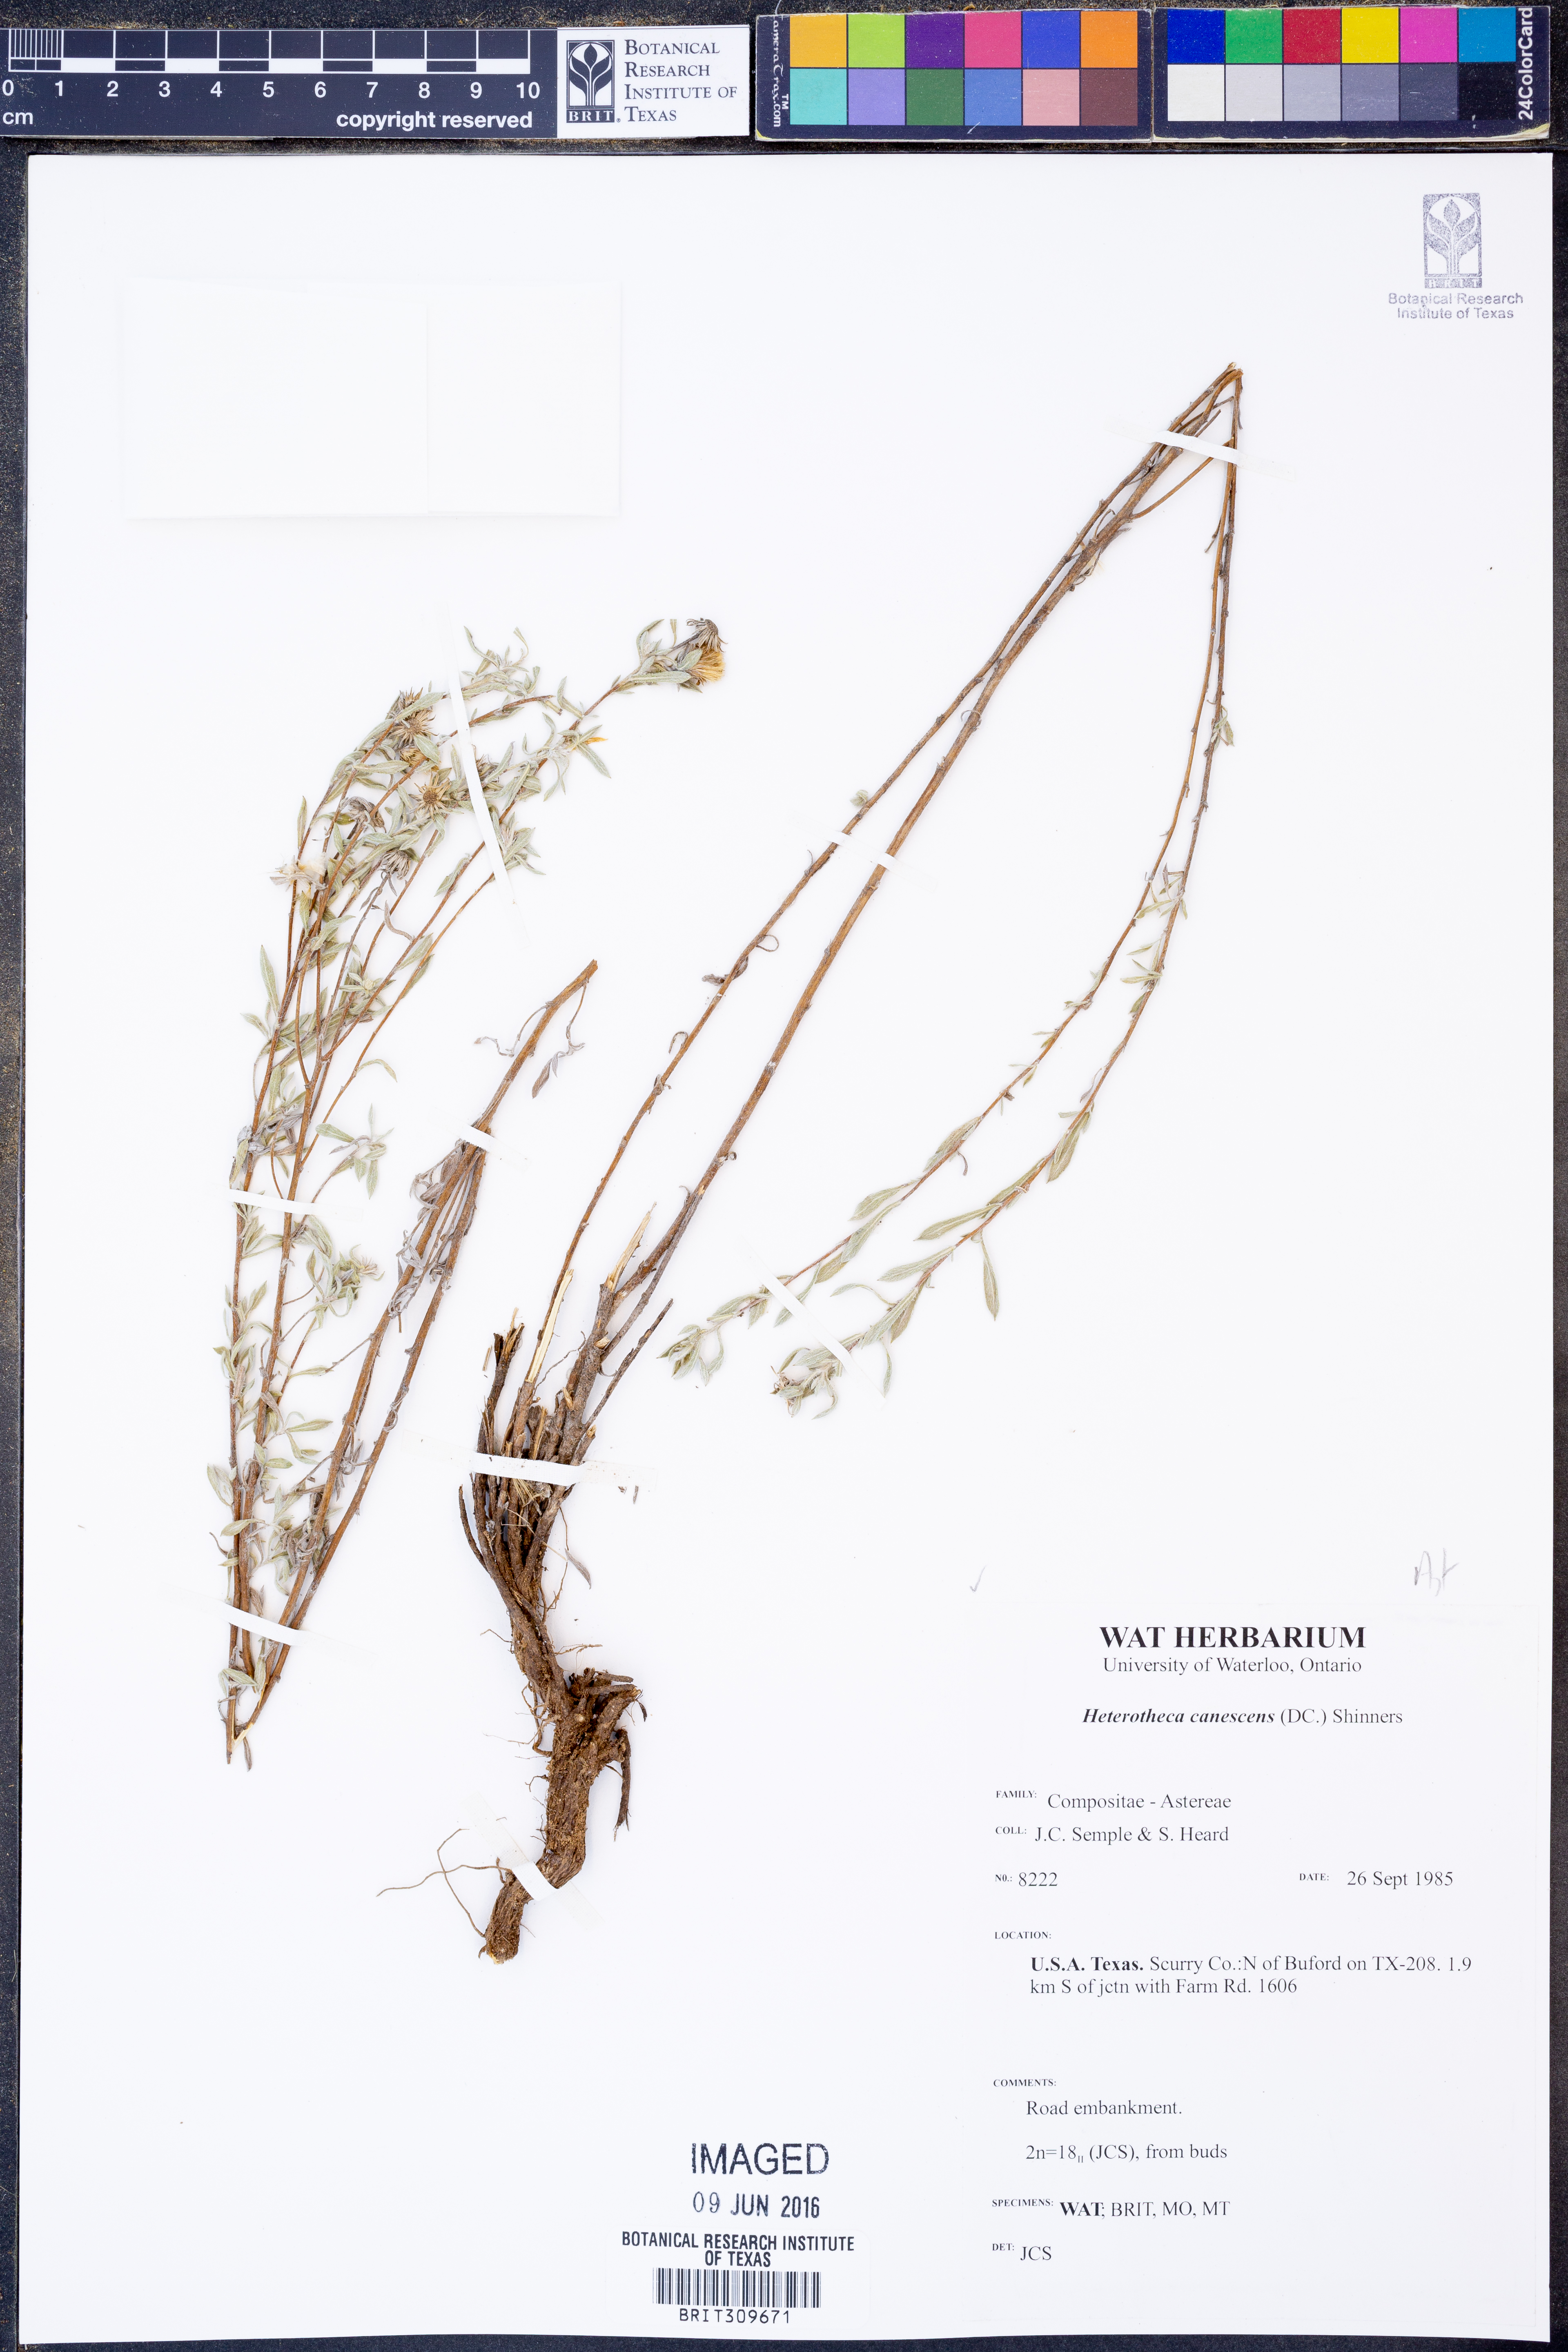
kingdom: Plantae
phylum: Tracheophyta
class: Magnoliopsida
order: Asterales
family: Asteraceae
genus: Heterotheca
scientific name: Heterotheca canescens
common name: Hoary golden-aster
